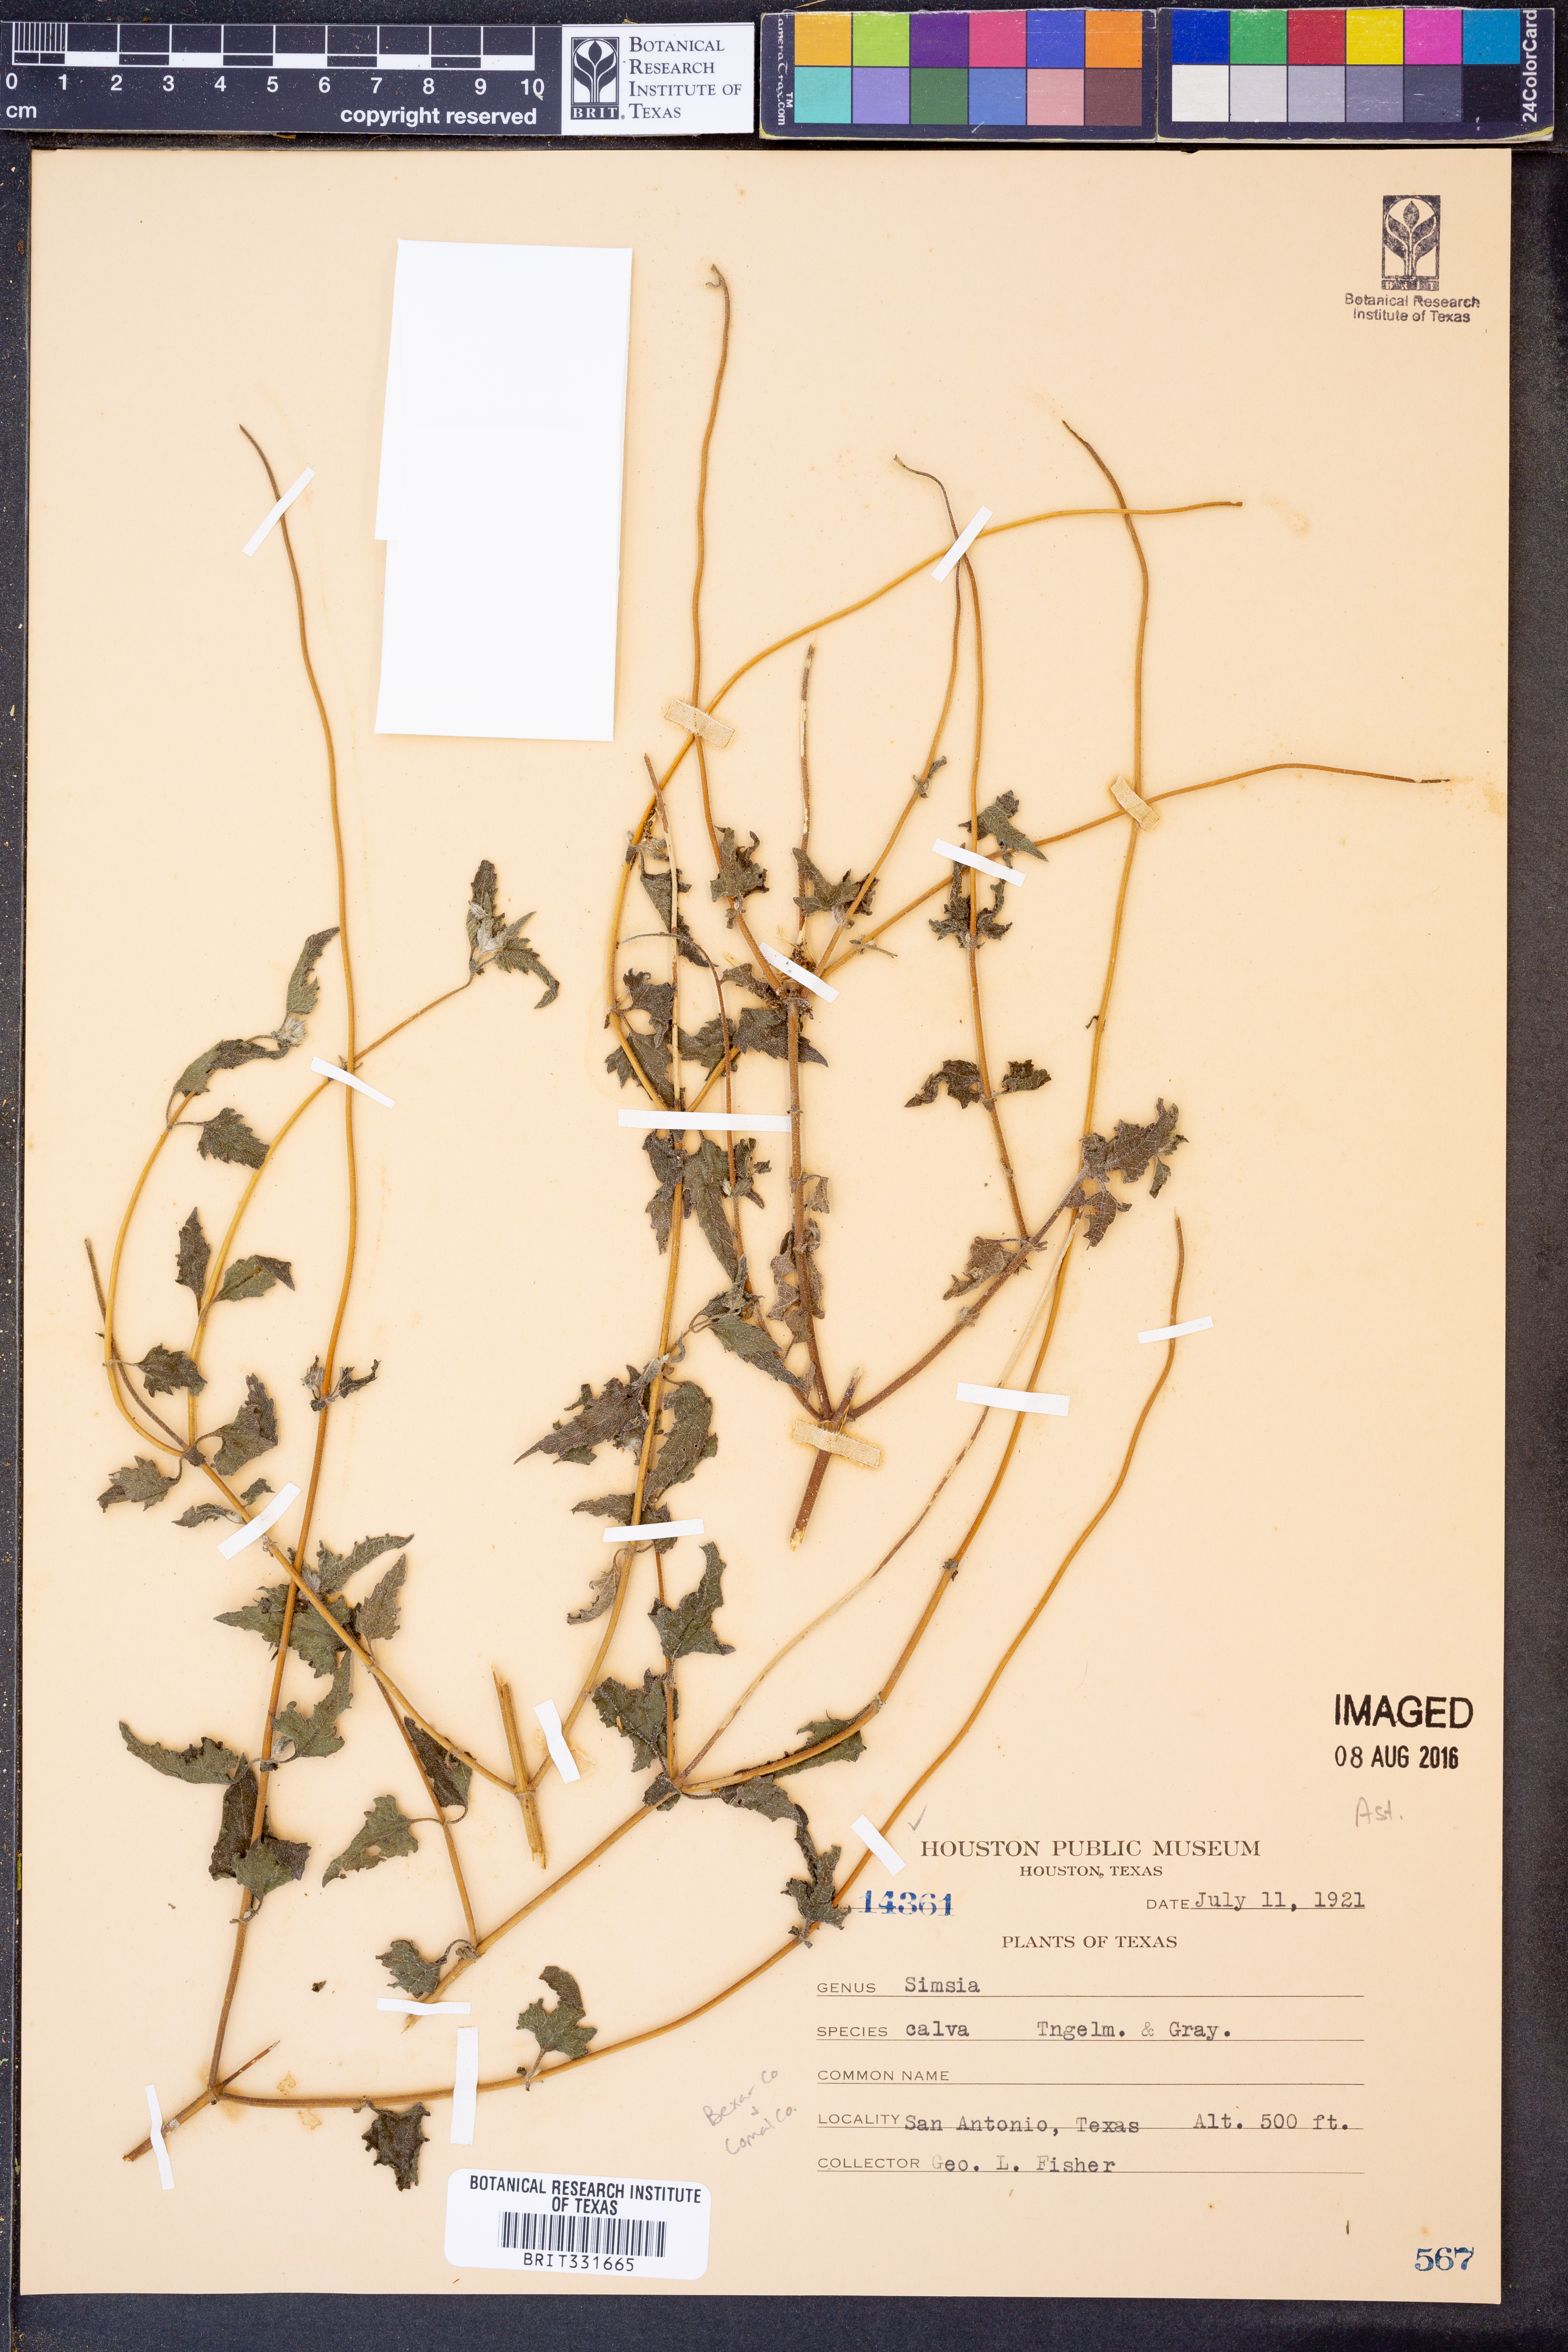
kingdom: Plantae
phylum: Tracheophyta
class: Magnoliopsida
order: Asterales
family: Asteraceae
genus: Simsia
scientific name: Simsia calva
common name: Awnless bush-sunflower
